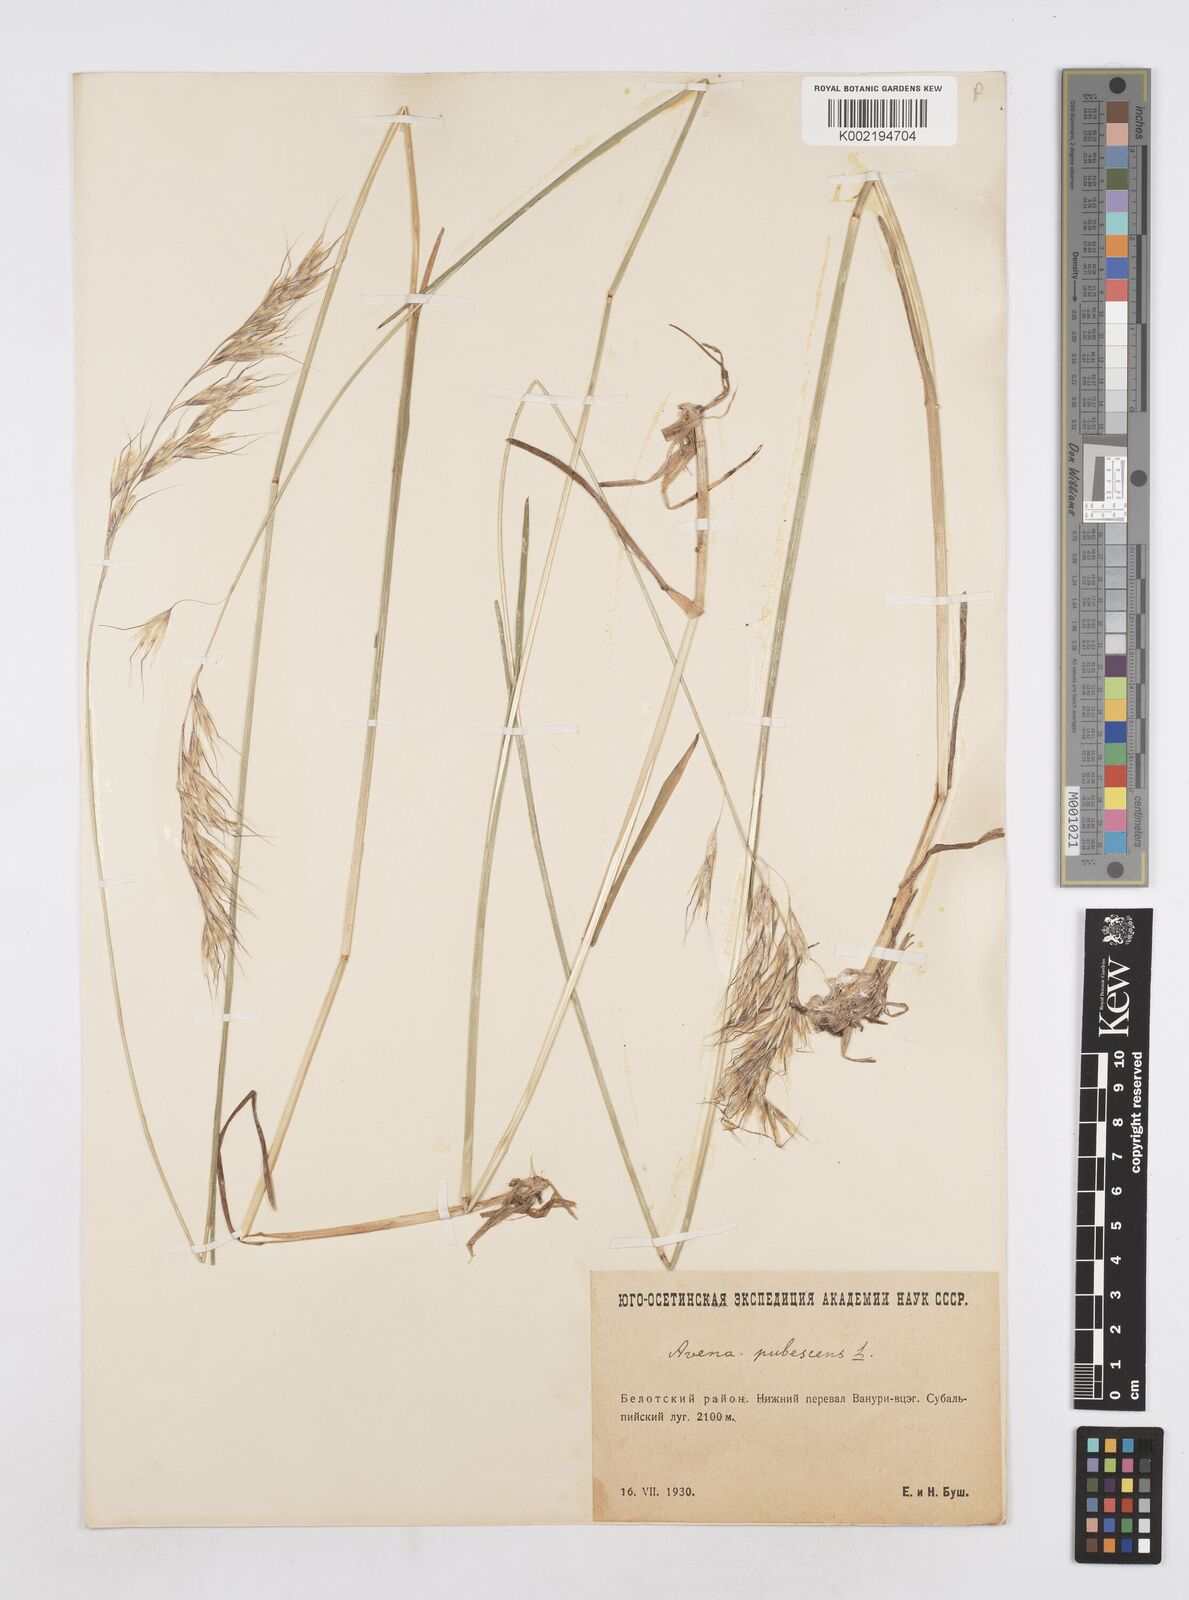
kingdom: Plantae
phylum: Tracheophyta
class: Liliopsida
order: Poales
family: Poaceae
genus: Avenula
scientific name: Avenula pubescens
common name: Downy alpine oatgrass
